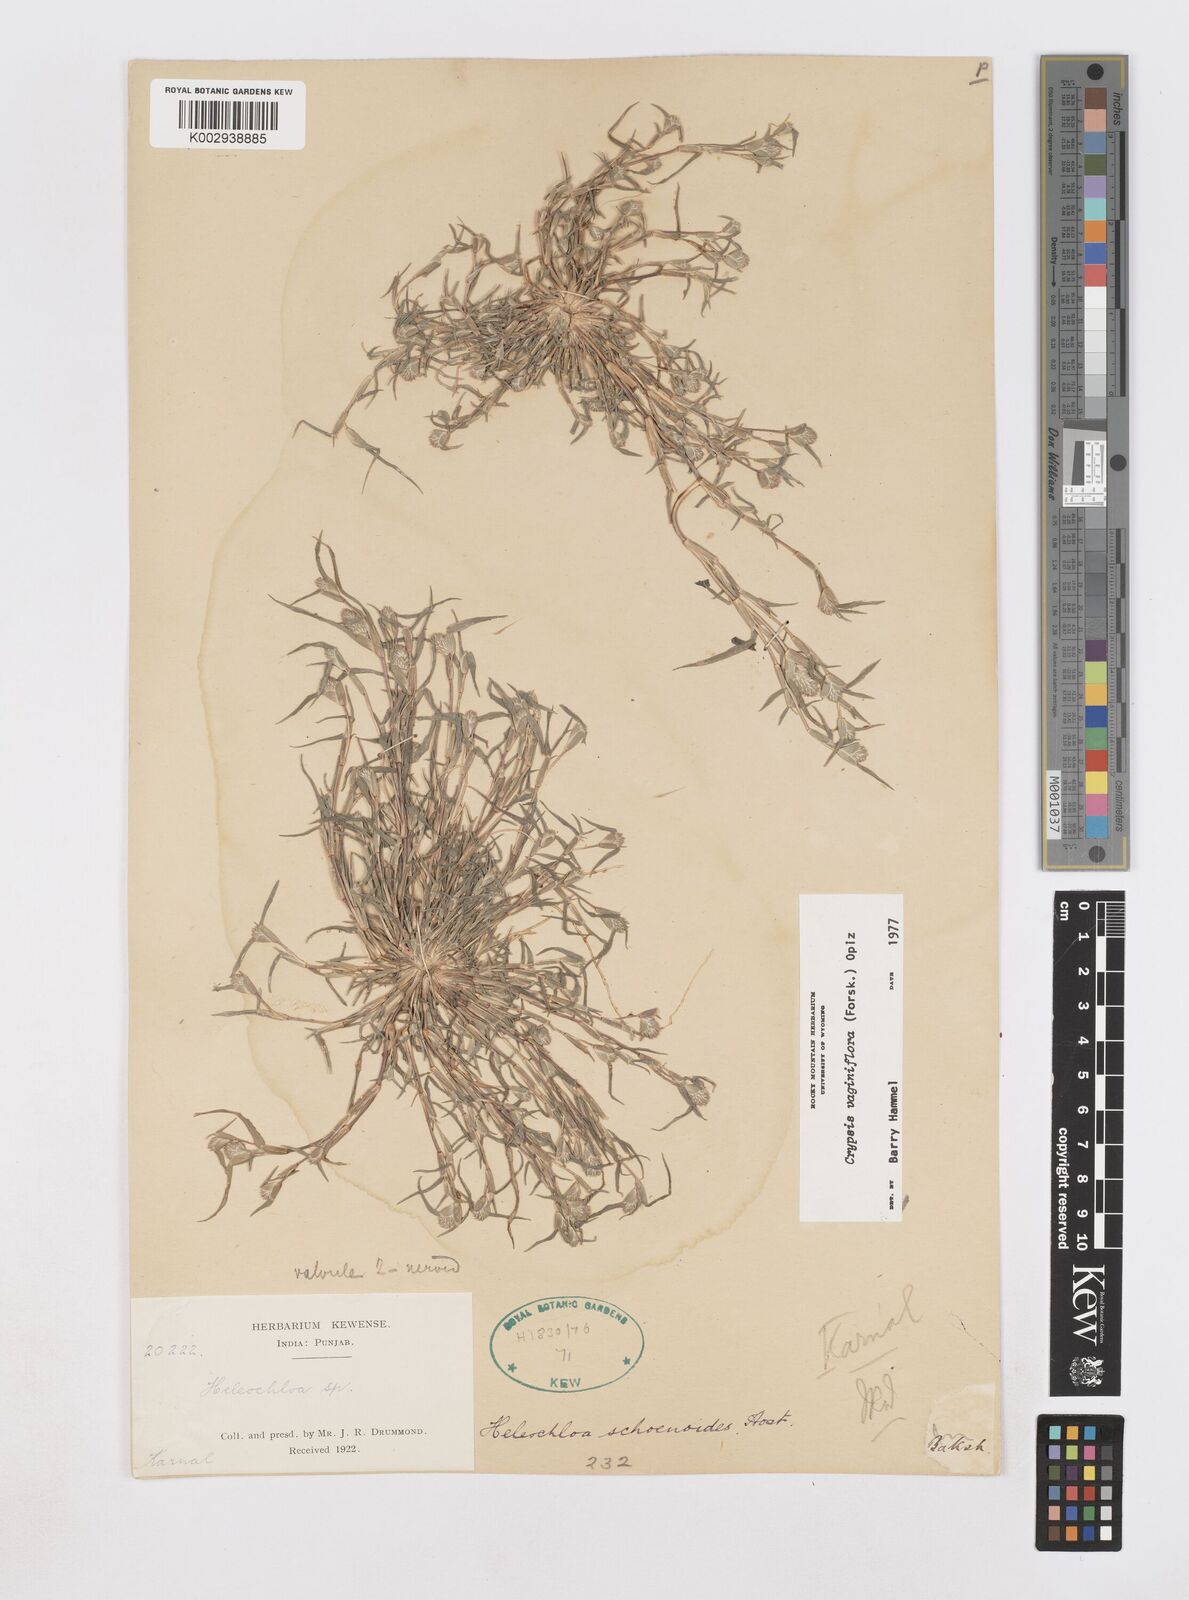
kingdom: Plantae
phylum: Tracheophyta
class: Liliopsida
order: Poales
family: Poaceae
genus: Sporobolus
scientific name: Sporobolus niliacus
